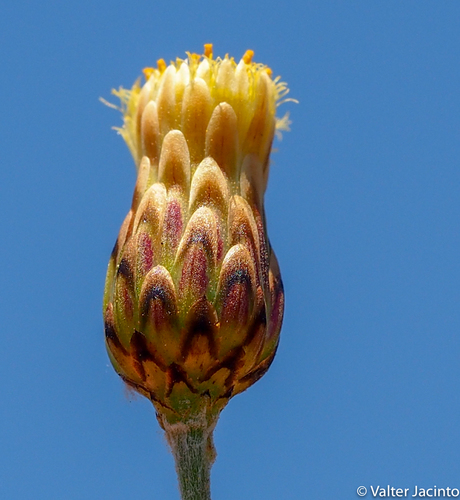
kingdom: Plantae
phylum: Tracheophyta
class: Magnoliopsida
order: Asterales
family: Asteraceae
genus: Phagnalon
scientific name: Phagnalon rupestre
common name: Rock phagnalon
